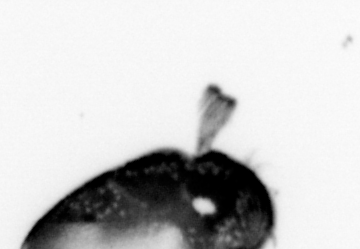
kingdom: Animalia
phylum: Annelida
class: Polychaeta
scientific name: Polychaeta
